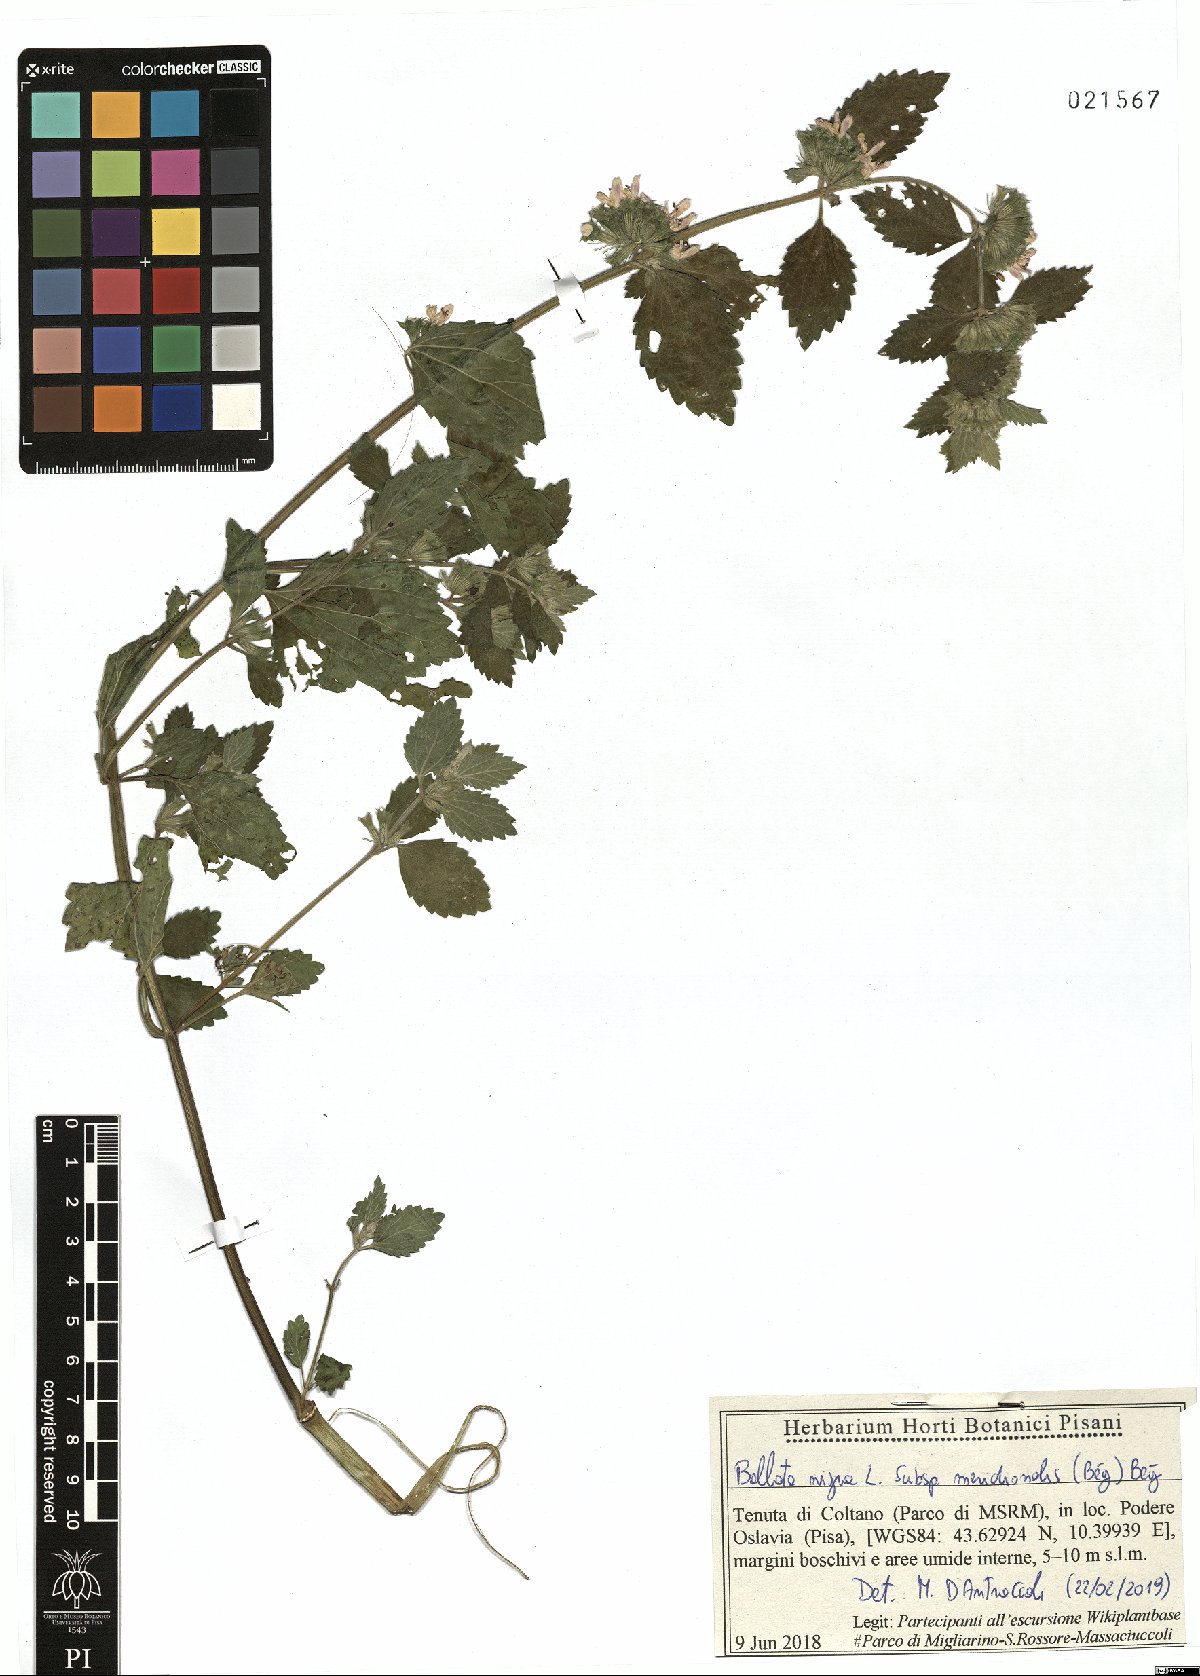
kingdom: Plantae
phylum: Tracheophyta
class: Magnoliopsida
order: Lamiales
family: Lamiaceae
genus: Ballota
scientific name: Ballota nigra
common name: Black horehound
